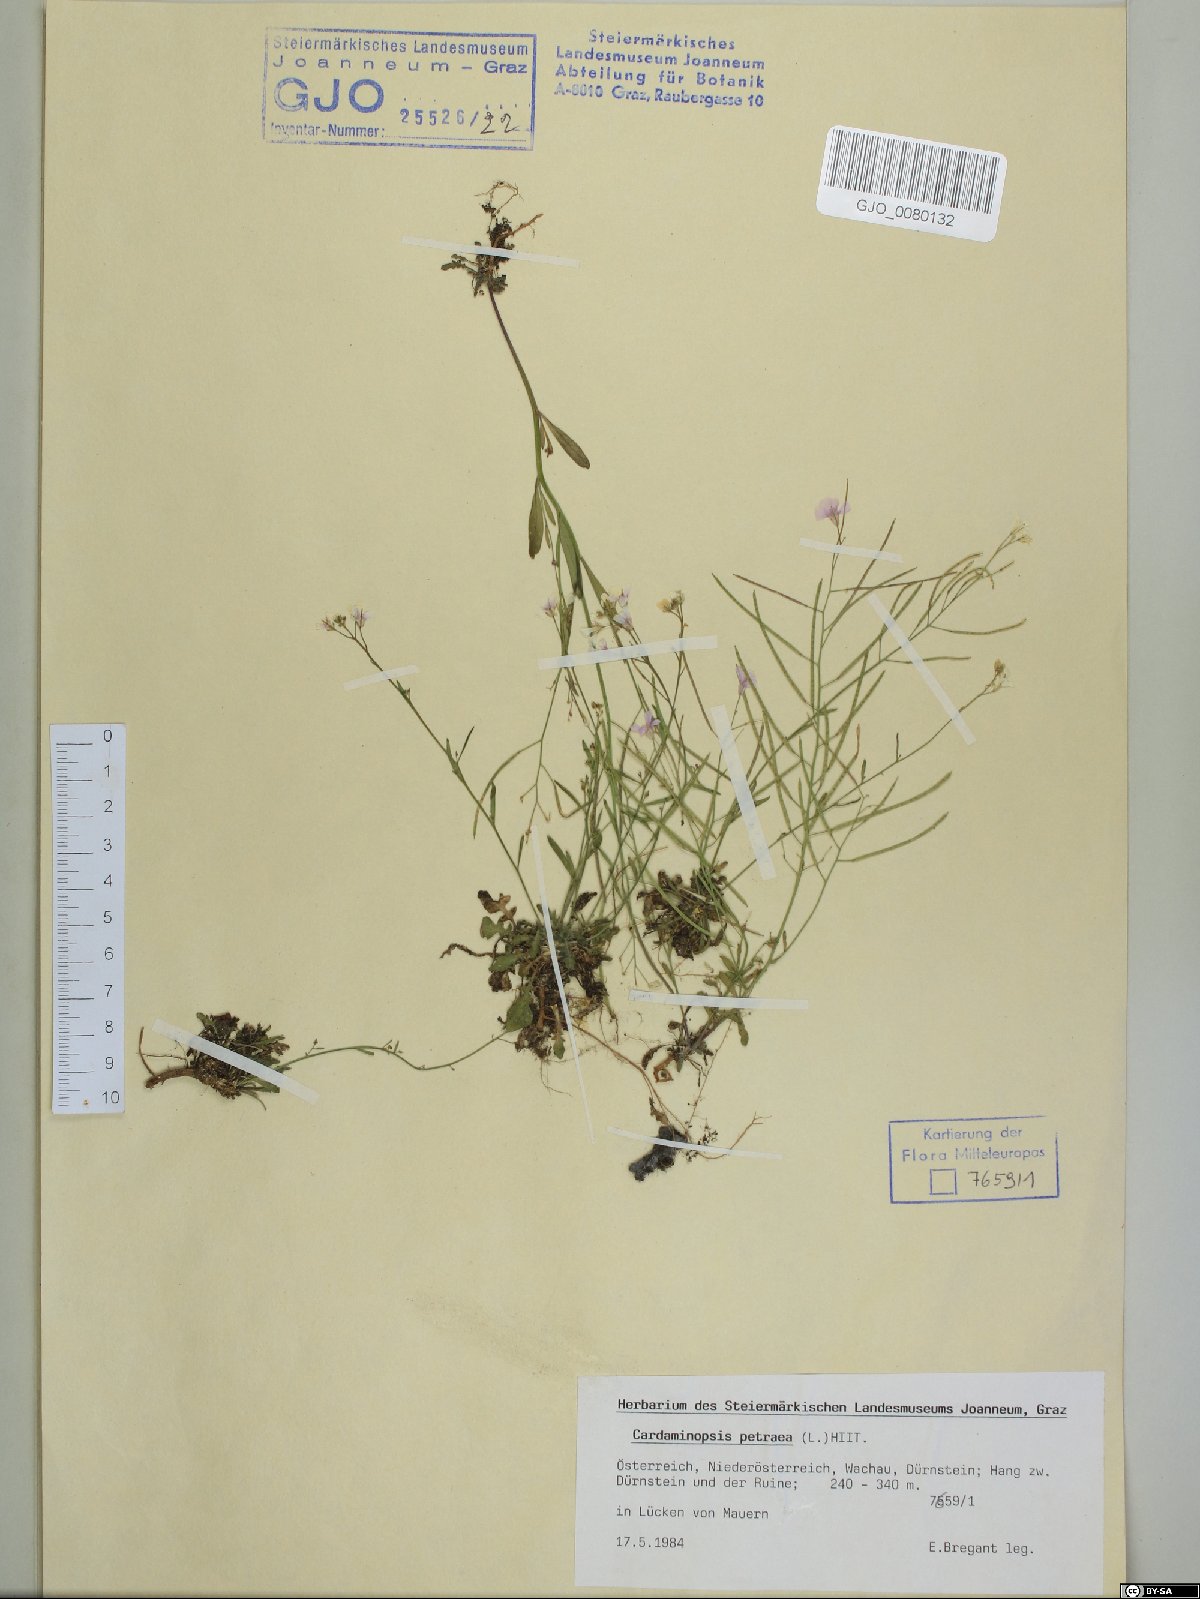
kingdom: Plantae
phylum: Tracheophyta
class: Magnoliopsida
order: Brassicales
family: Brassicaceae
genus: Arabidopsis
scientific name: Arabidopsis lyrata
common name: Lyrate rockcress
